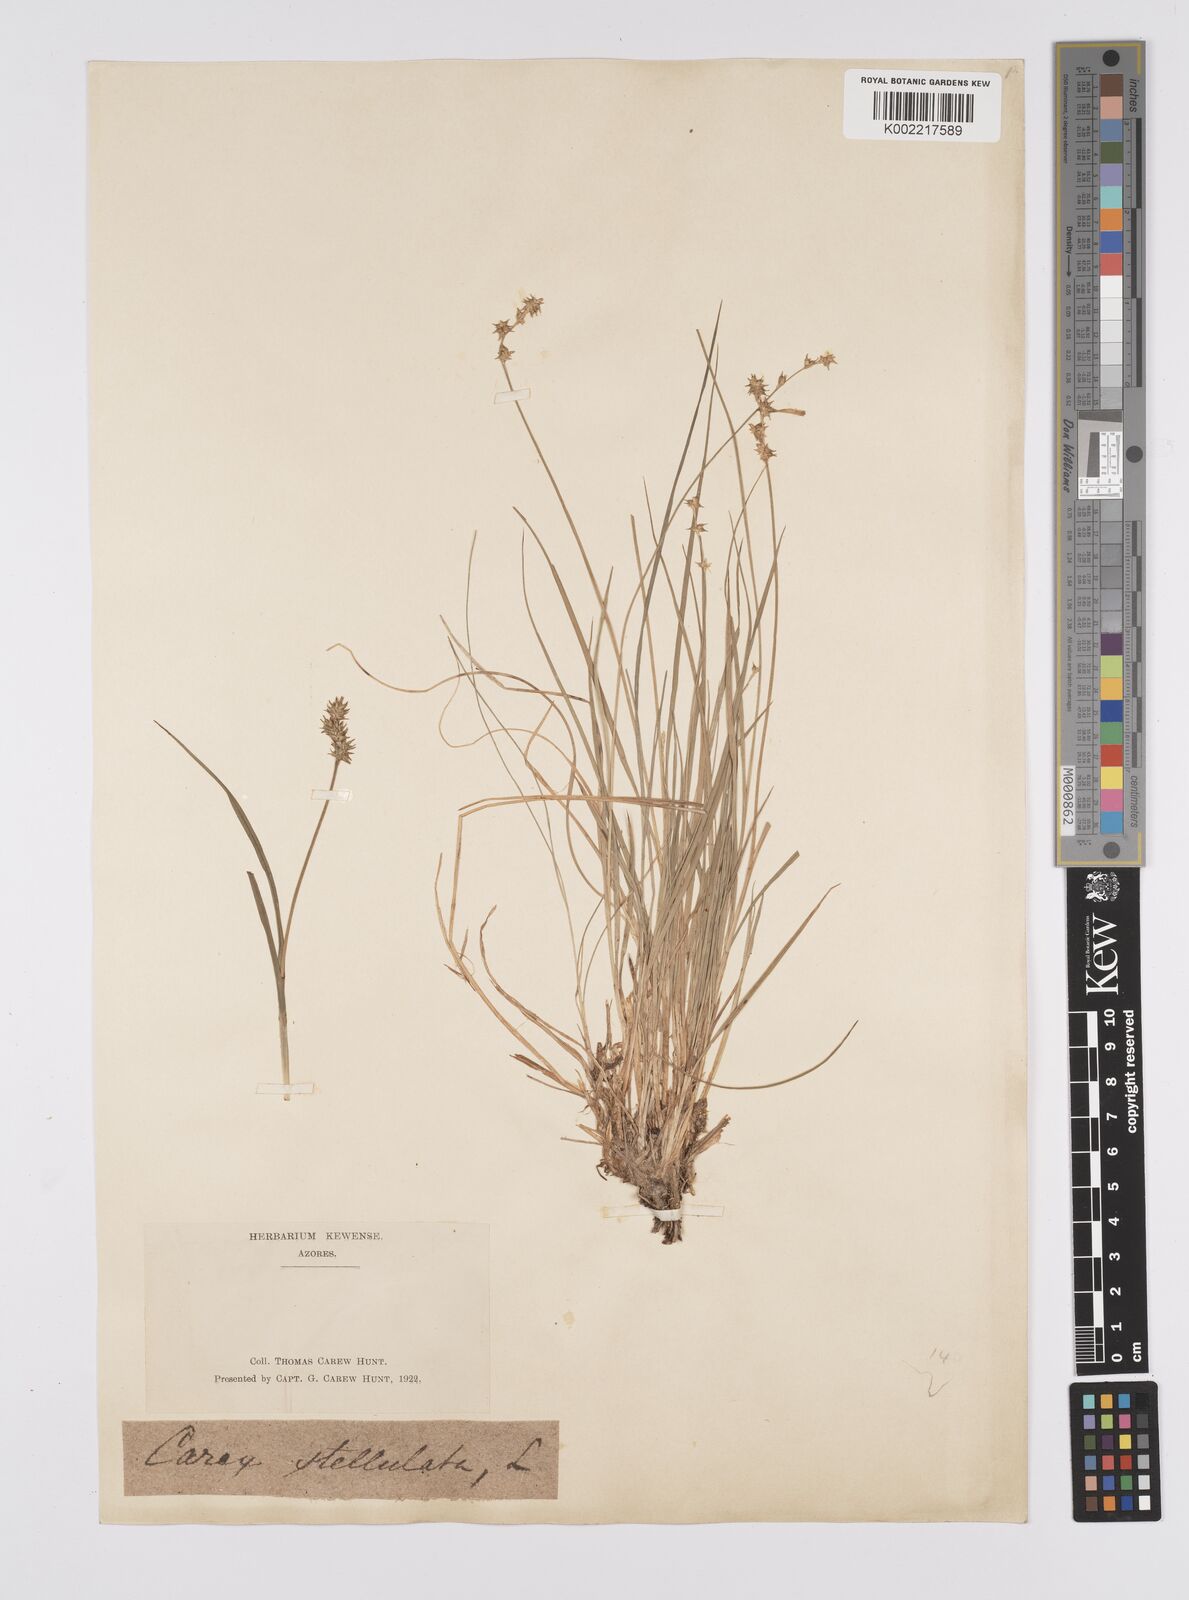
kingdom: Plantae
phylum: Tracheophyta
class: Liliopsida
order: Poales
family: Cyperaceae
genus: Carex
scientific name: Carex echinata
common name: Star sedge
